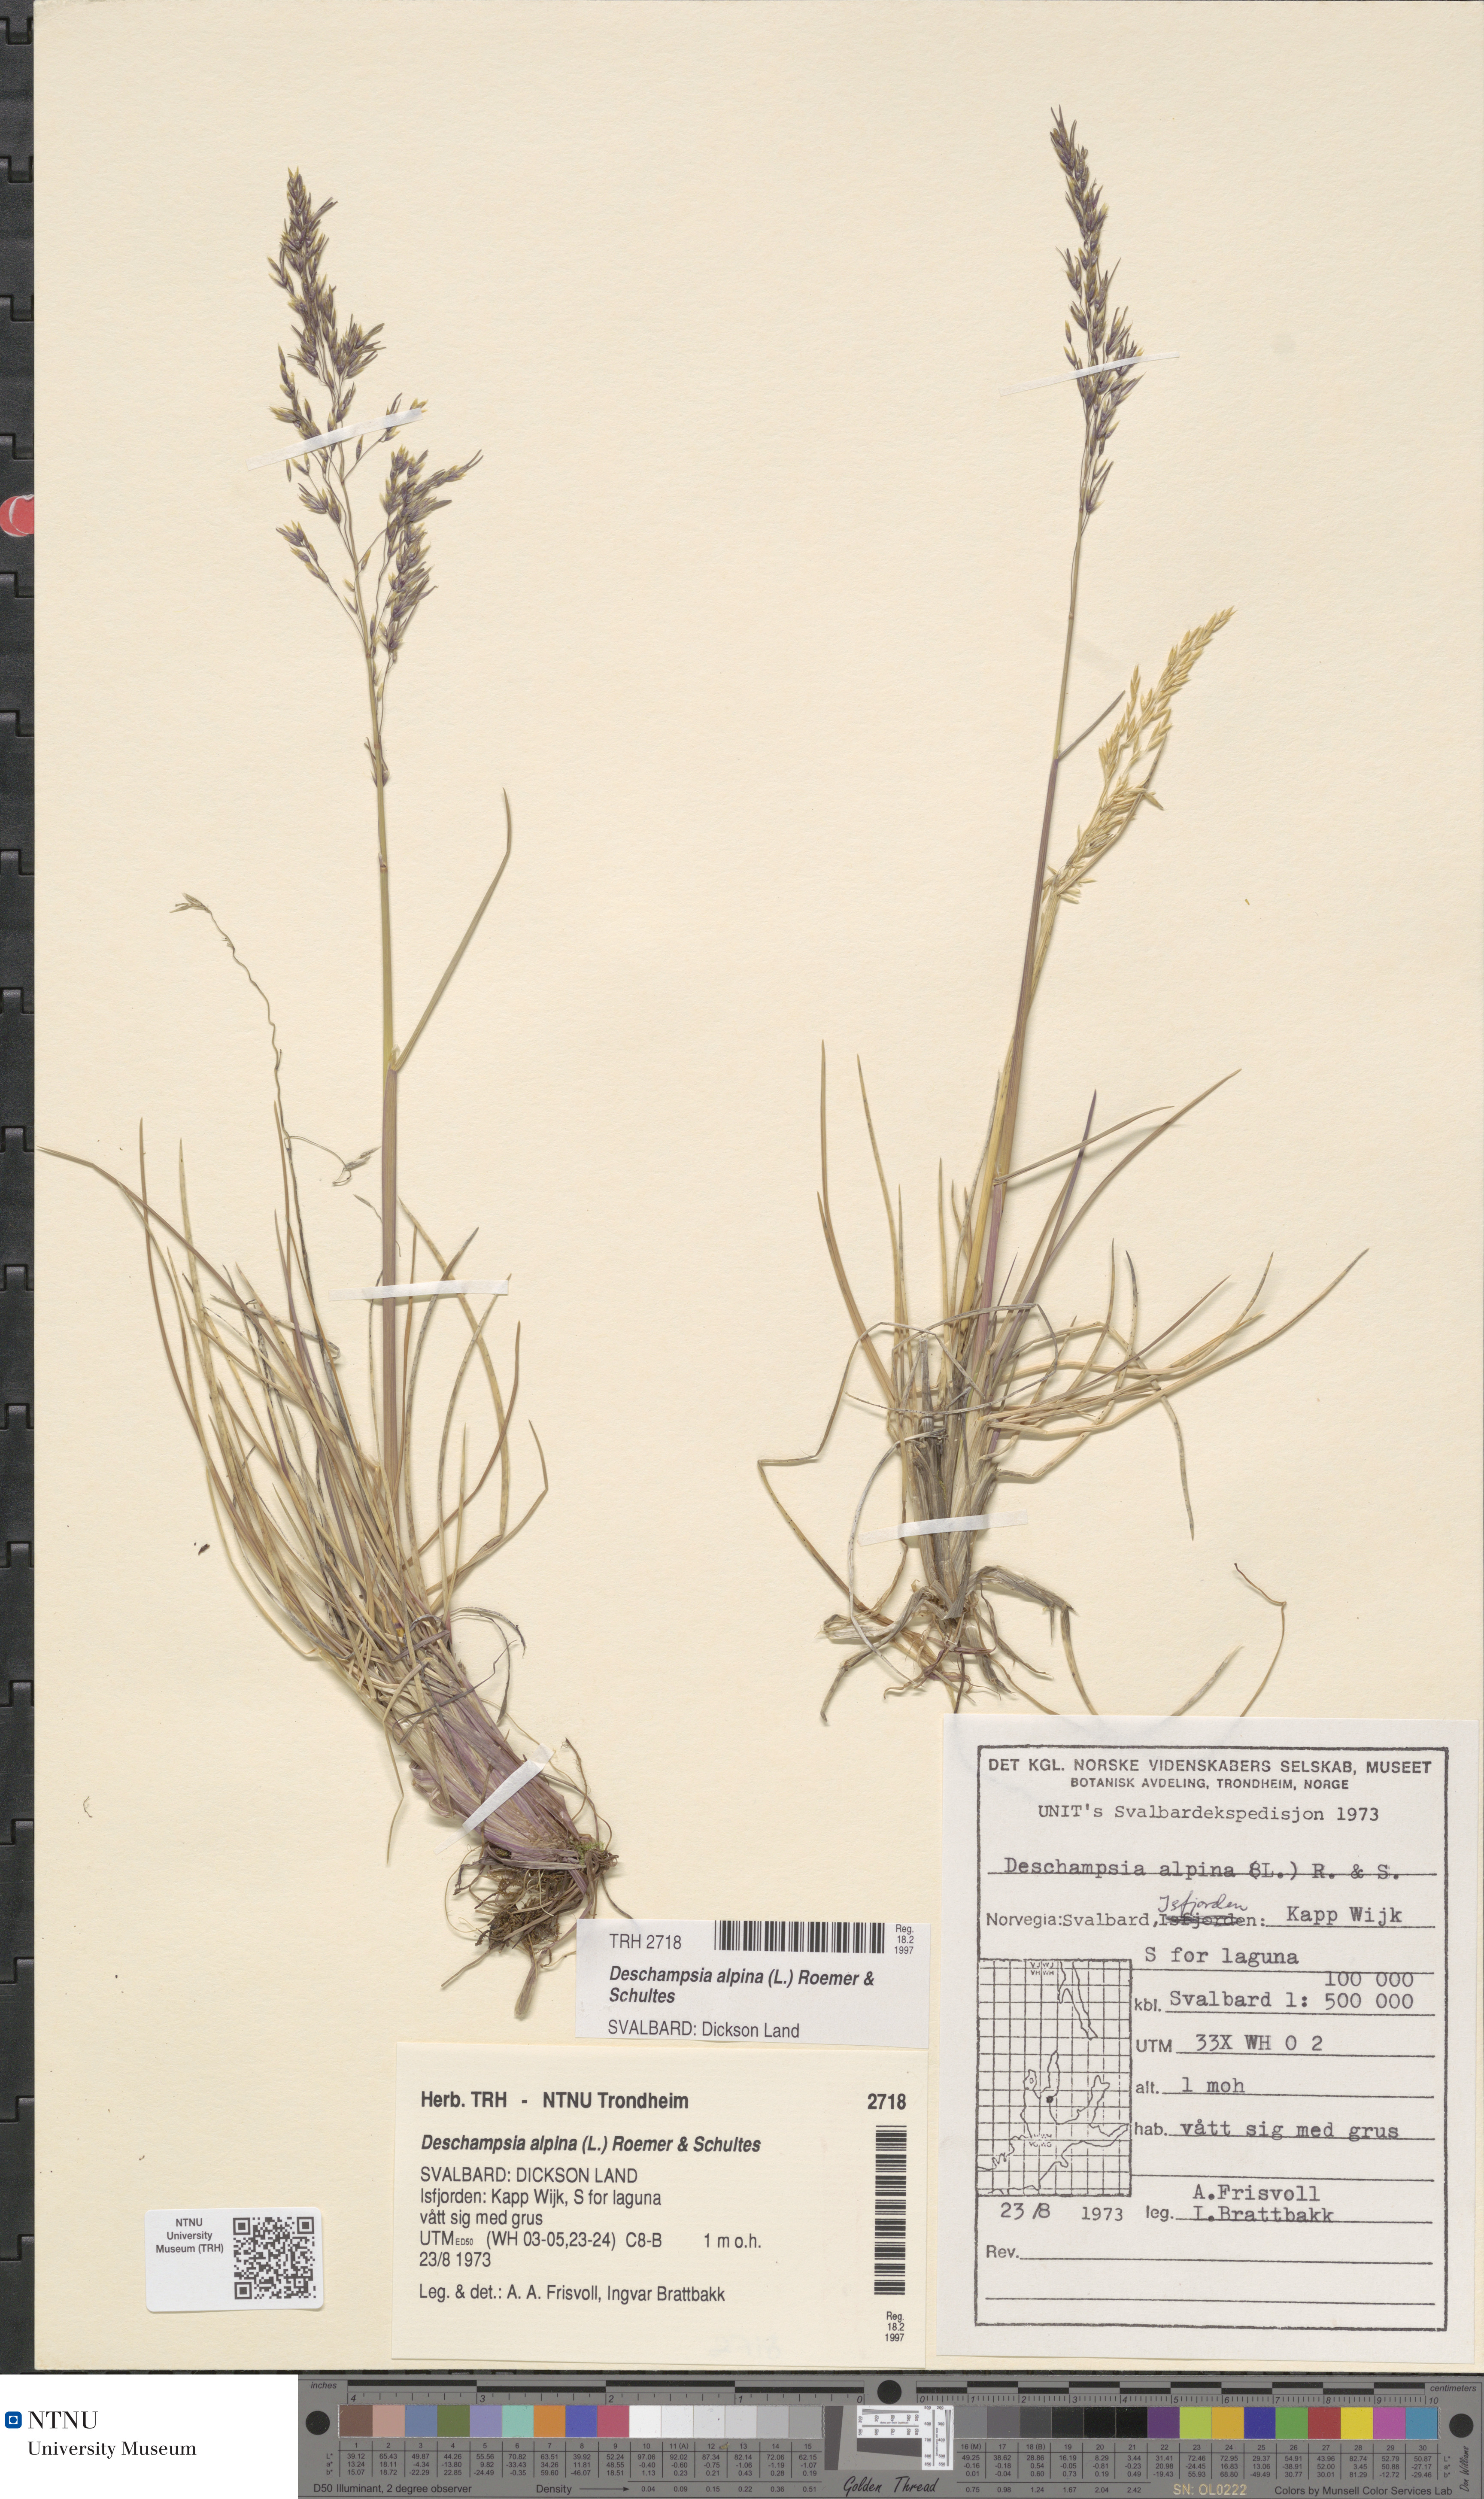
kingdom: Plantae
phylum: Tracheophyta
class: Liliopsida
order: Poales
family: Poaceae
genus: Deschampsia
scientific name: Deschampsia cespitosa
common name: Tufted hair-grass
